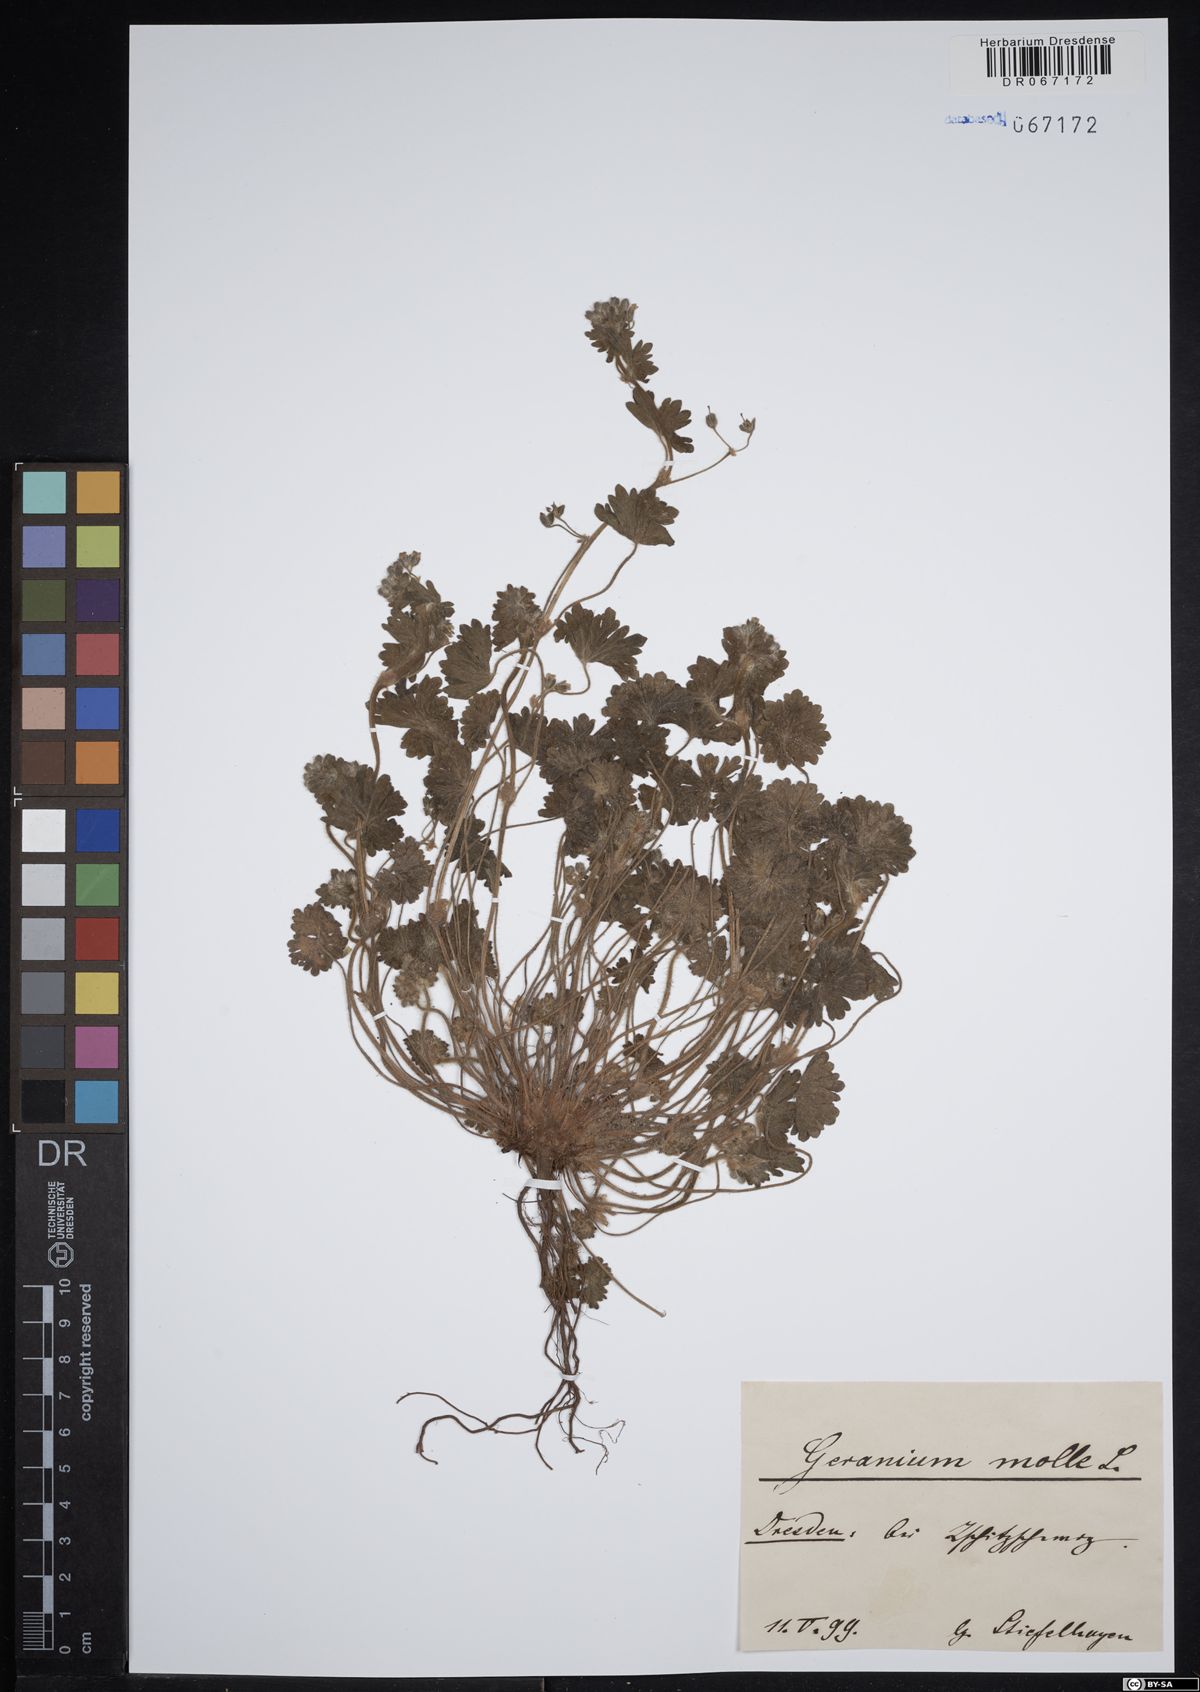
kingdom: Plantae
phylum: Tracheophyta
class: Magnoliopsida
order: Geraniales
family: Geraniaceae
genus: Geranium
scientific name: Geranium molle
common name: Dove's-foot crane's-bill
